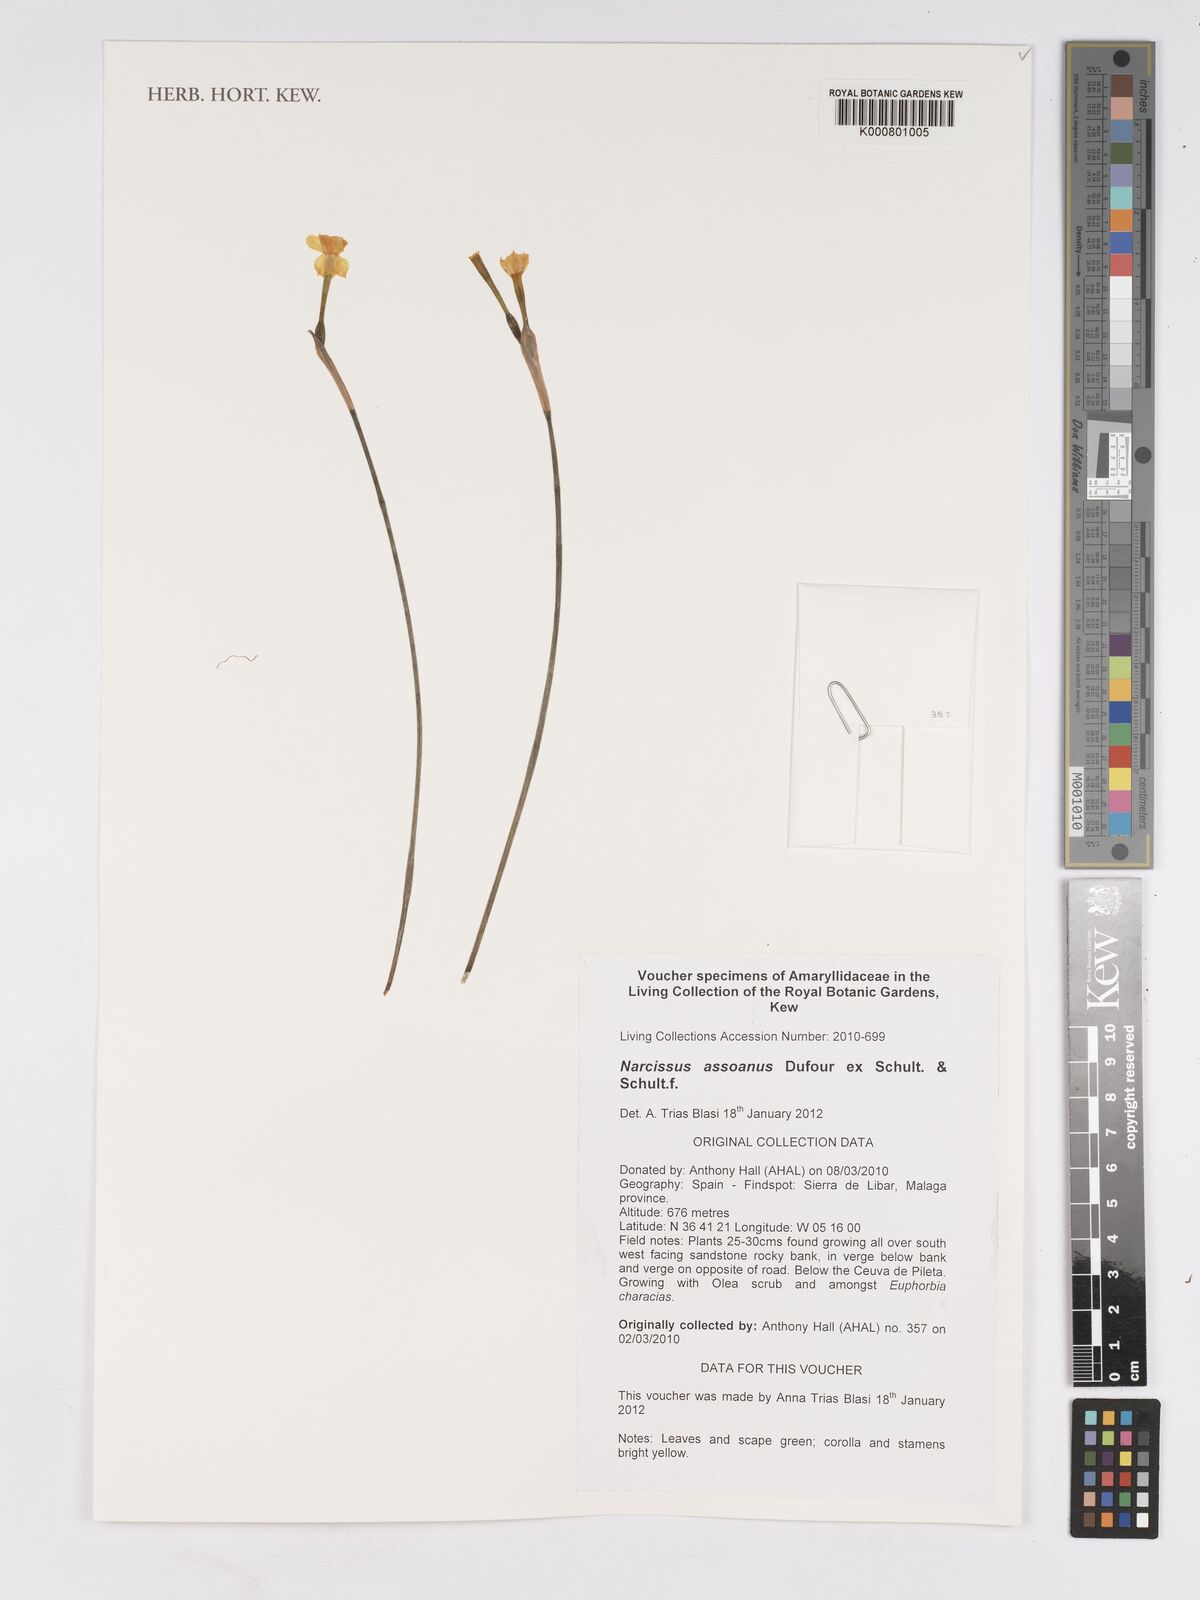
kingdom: Plantae
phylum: Tracheophyta
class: Liliopsida
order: Asparagales
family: Amaryllidaceae
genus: Narcissus
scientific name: Narcissus assoanus
